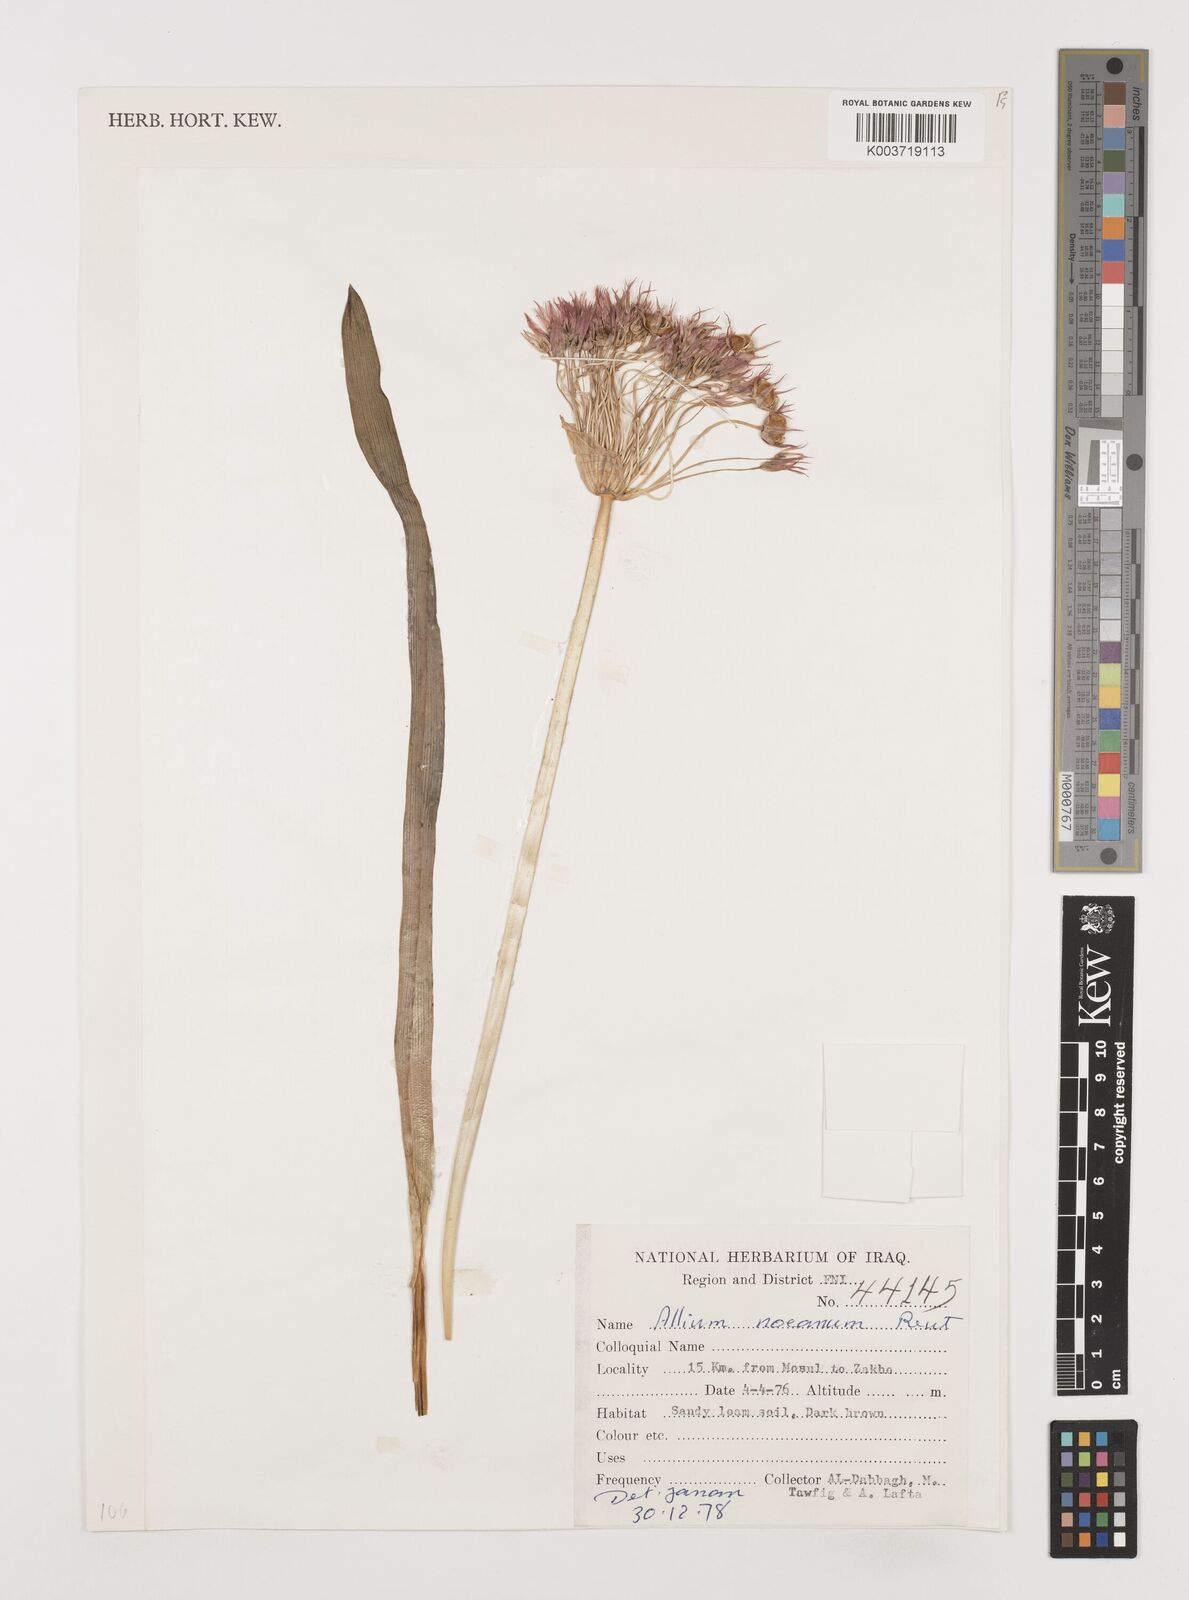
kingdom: Plantae
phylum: Tracheophyta
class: Liliopsida
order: Asparagales
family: Amaryllidaceae
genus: Allium
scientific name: Allium noeanum
